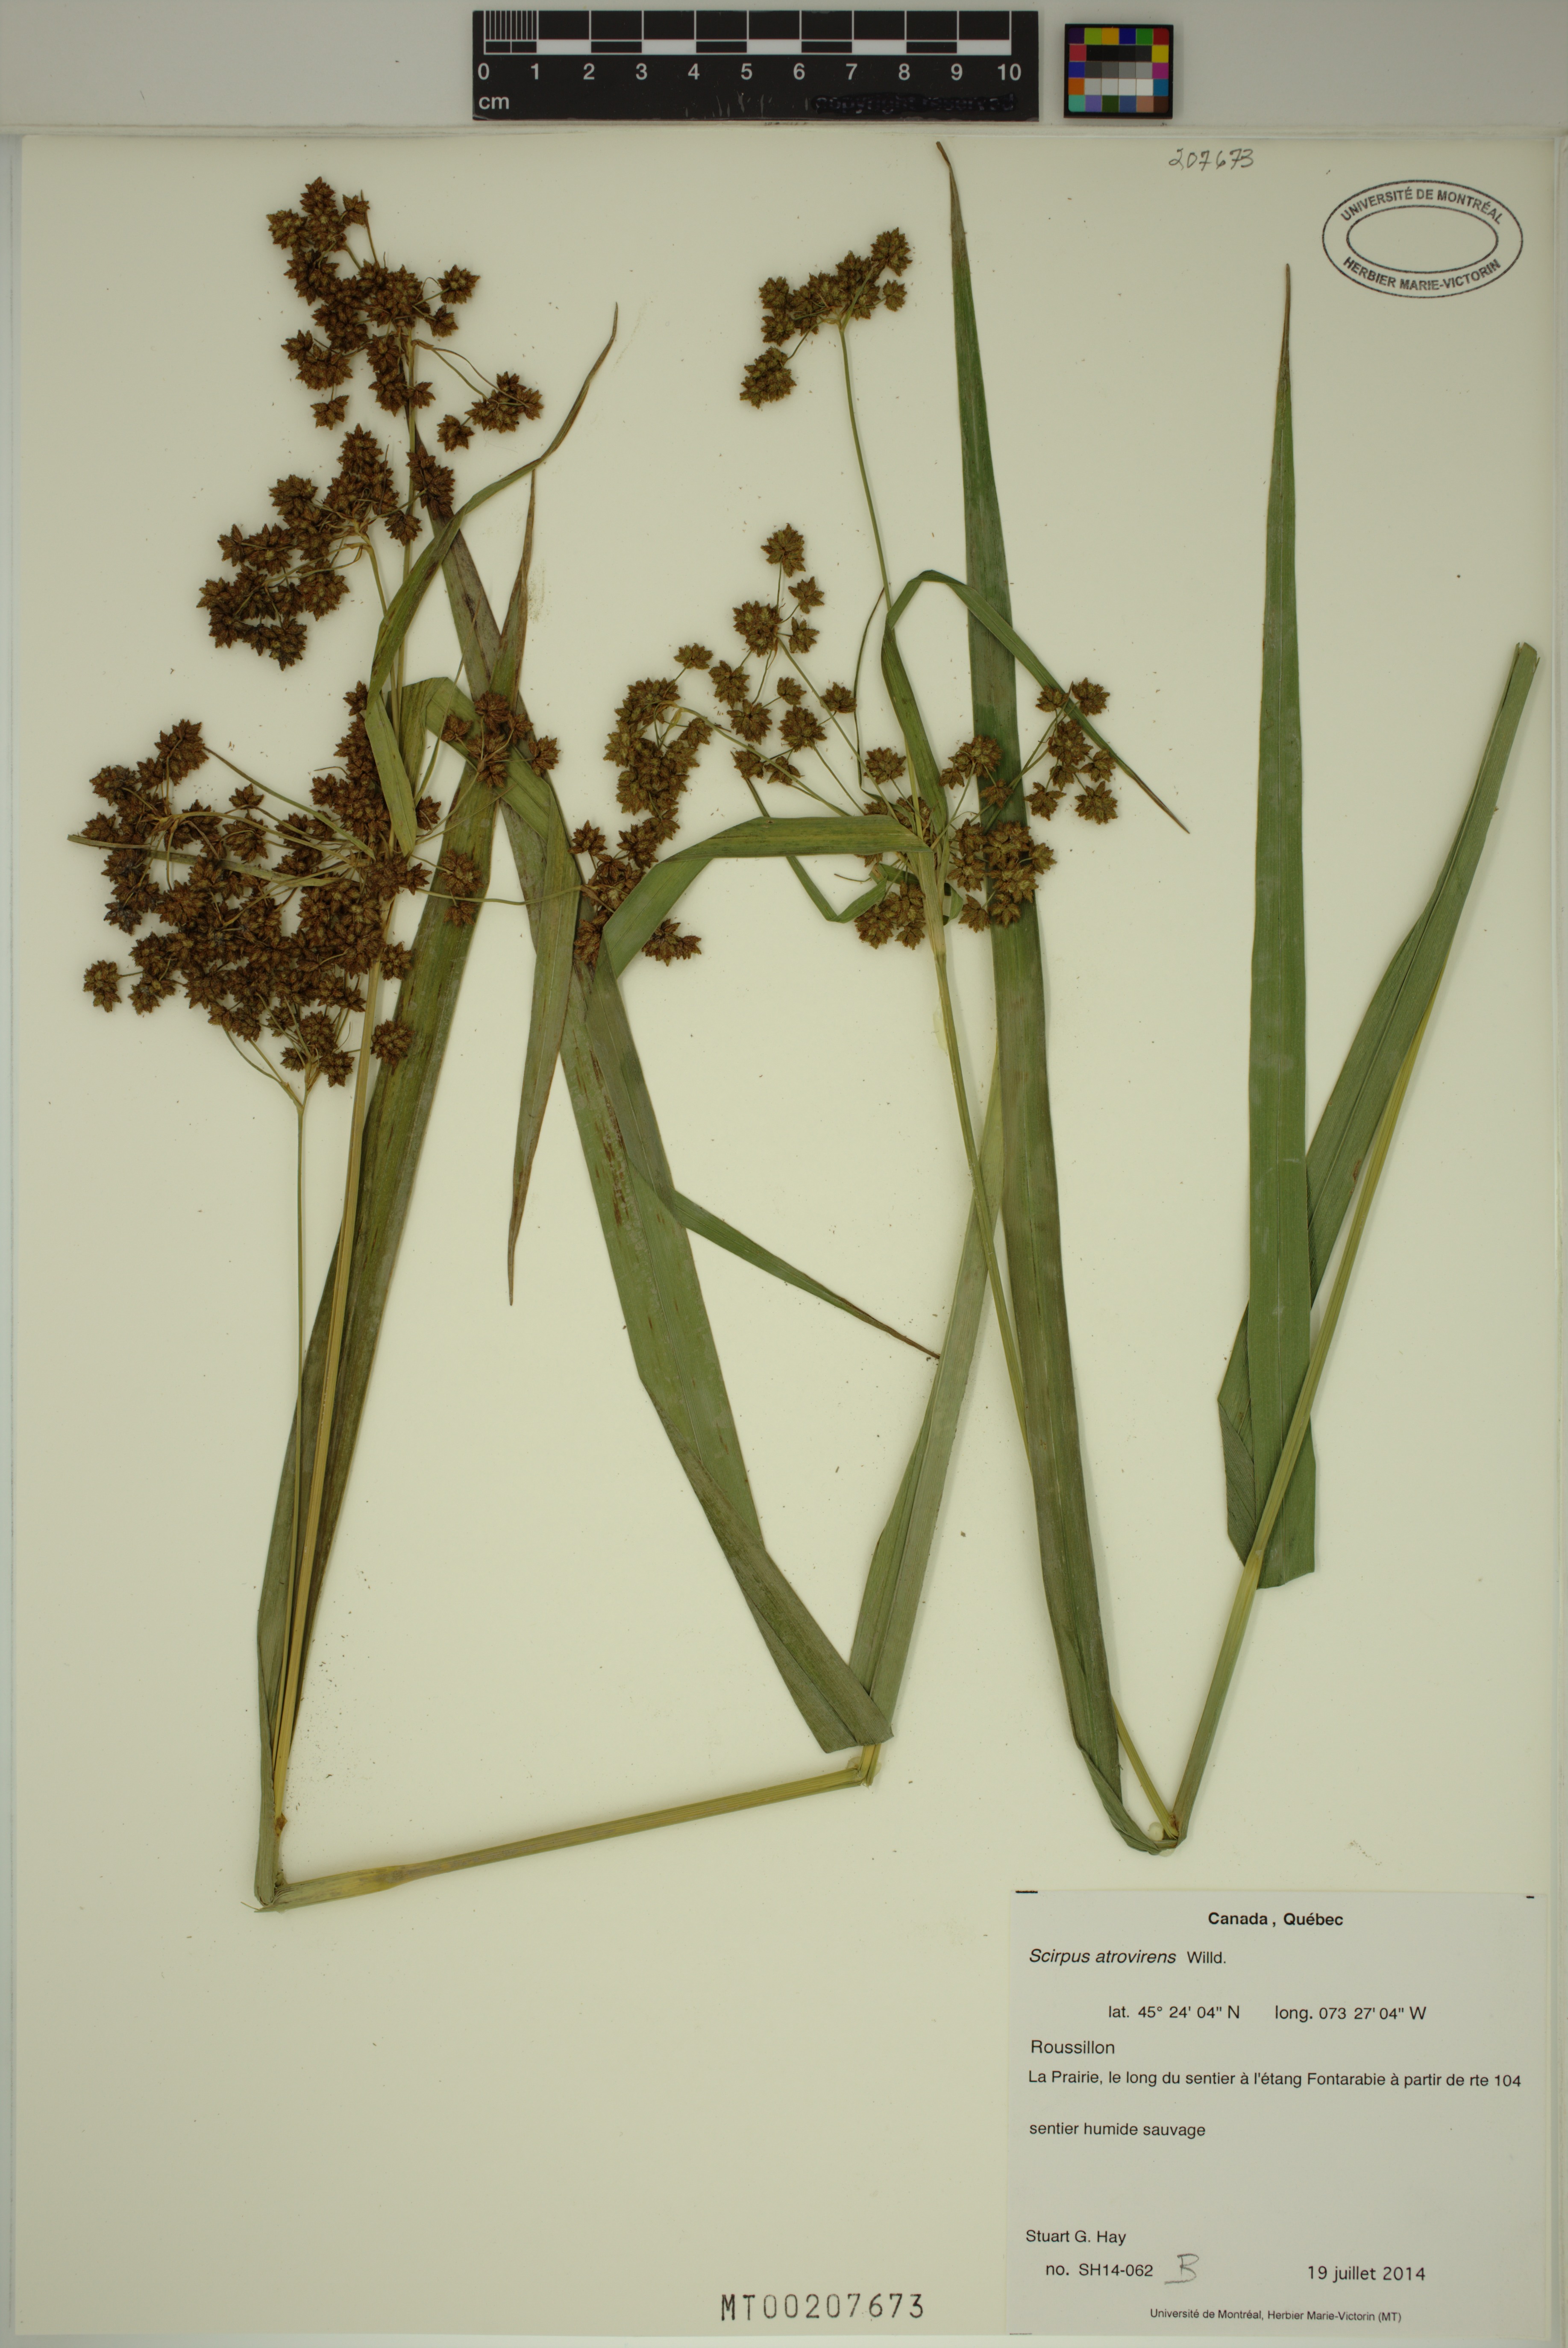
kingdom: Plantae
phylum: Tracheophyta
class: Liliopsida
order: Poales
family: Cyperaceae
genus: Scirpus
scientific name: Scirpus atrovirens
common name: Black bulrush
